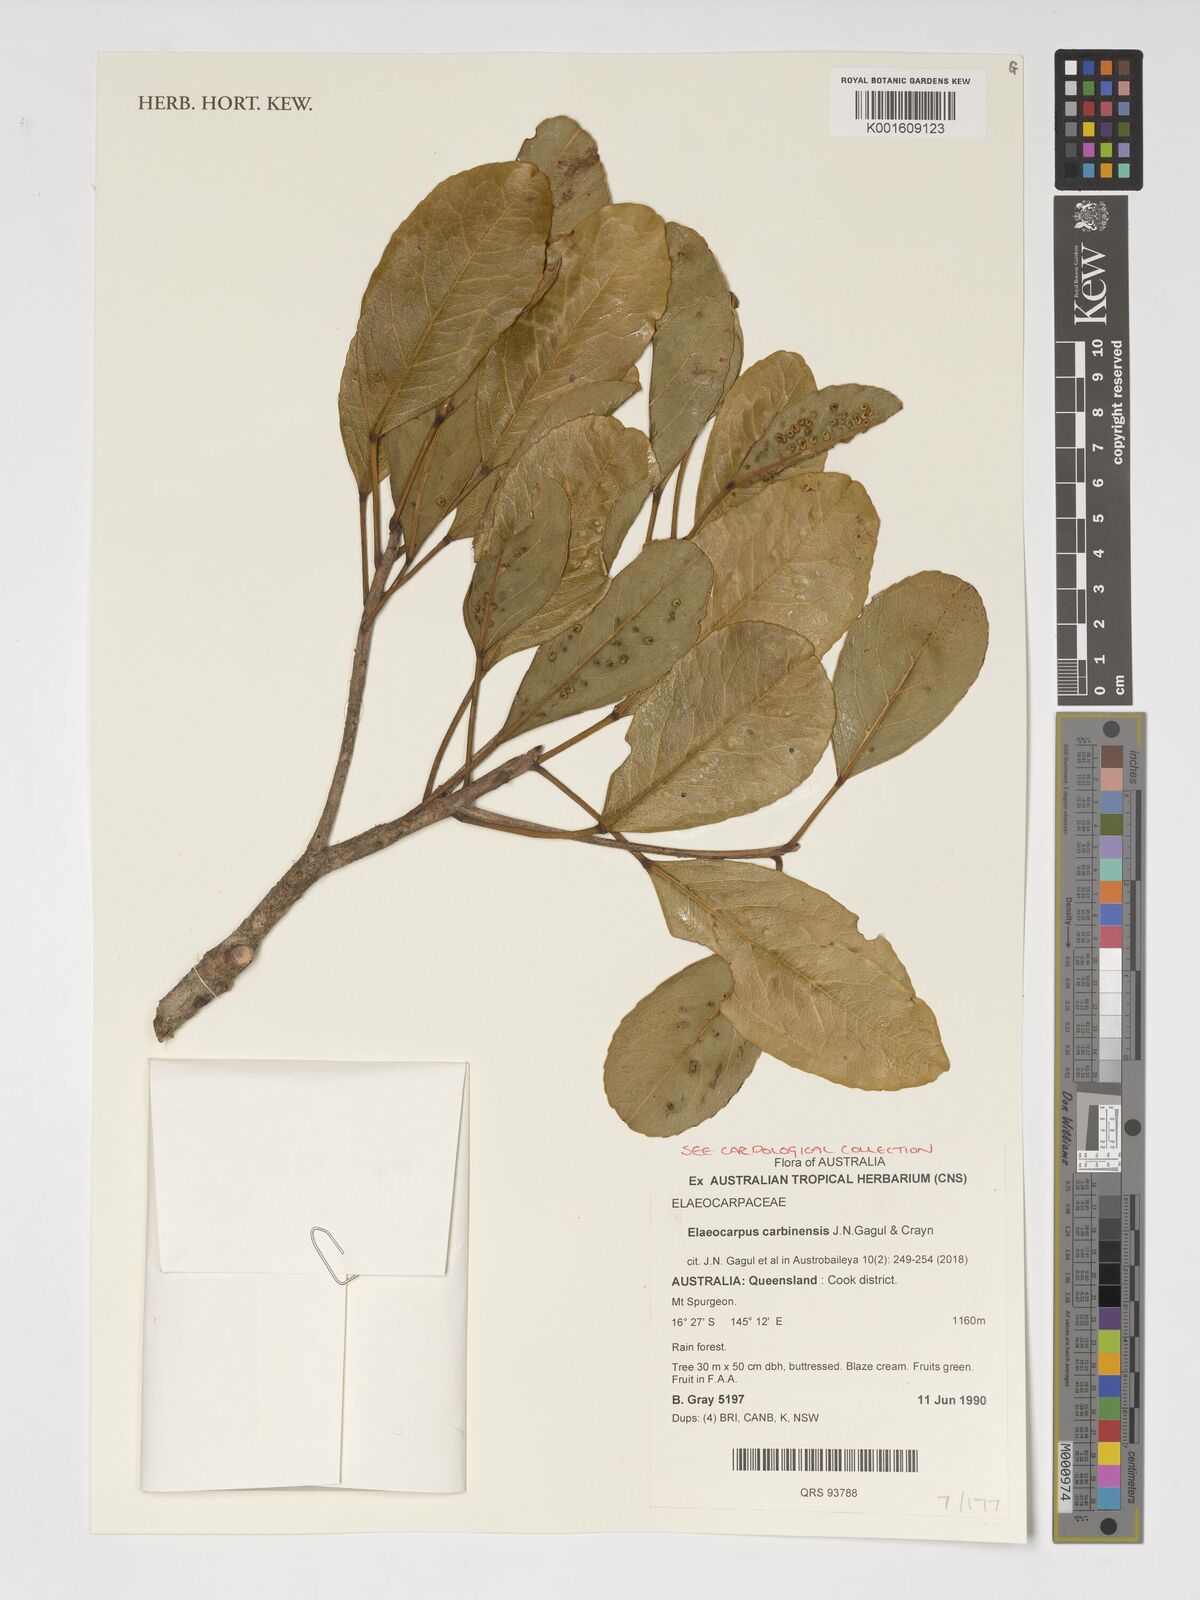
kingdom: Plantae
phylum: Tracheophyta
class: Magnoliopsida
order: Oxalidales
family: Elaeocarpaceae
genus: Elaeocarpus
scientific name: Elaeocarpus carbinensis
